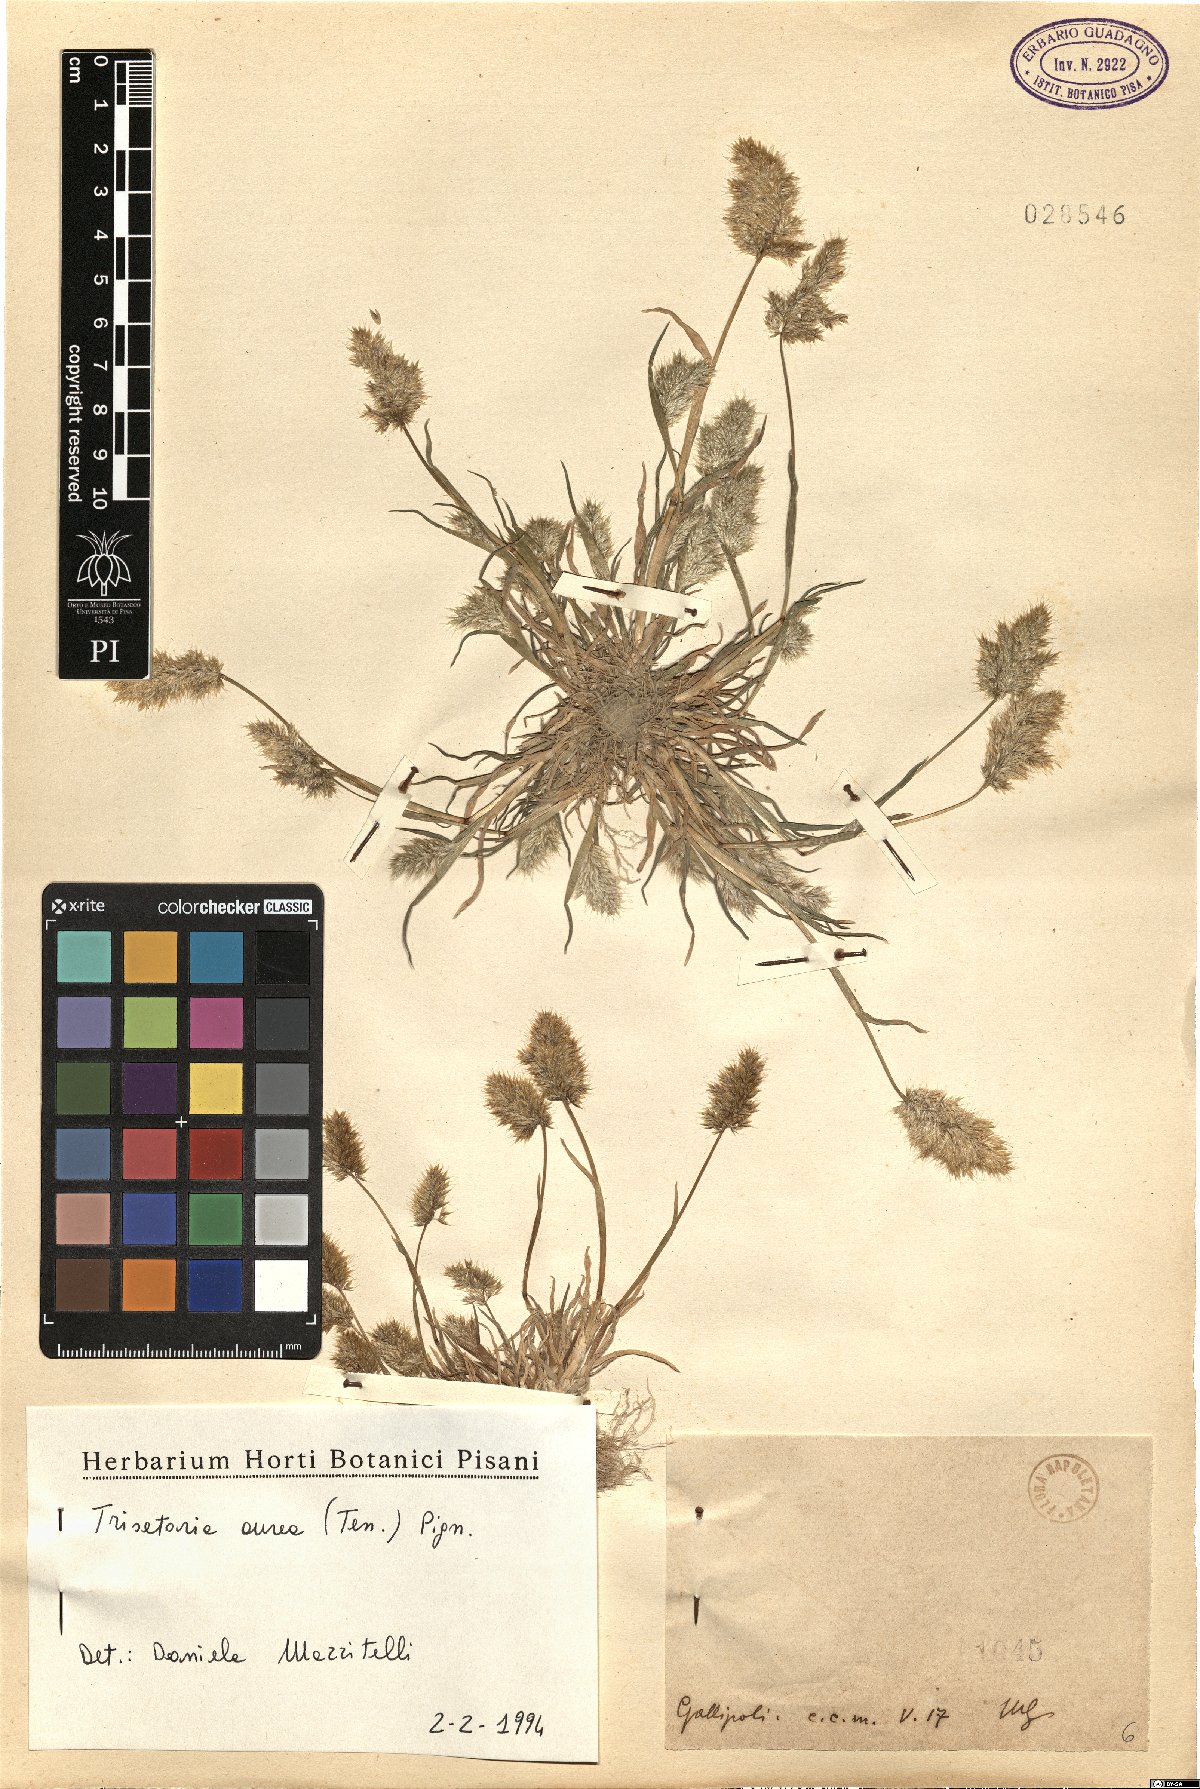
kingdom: Plantae
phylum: Tracheophyta
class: Liliopsida
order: Poales
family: Poaceae
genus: Trisetaria
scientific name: Trisetaria aurea
